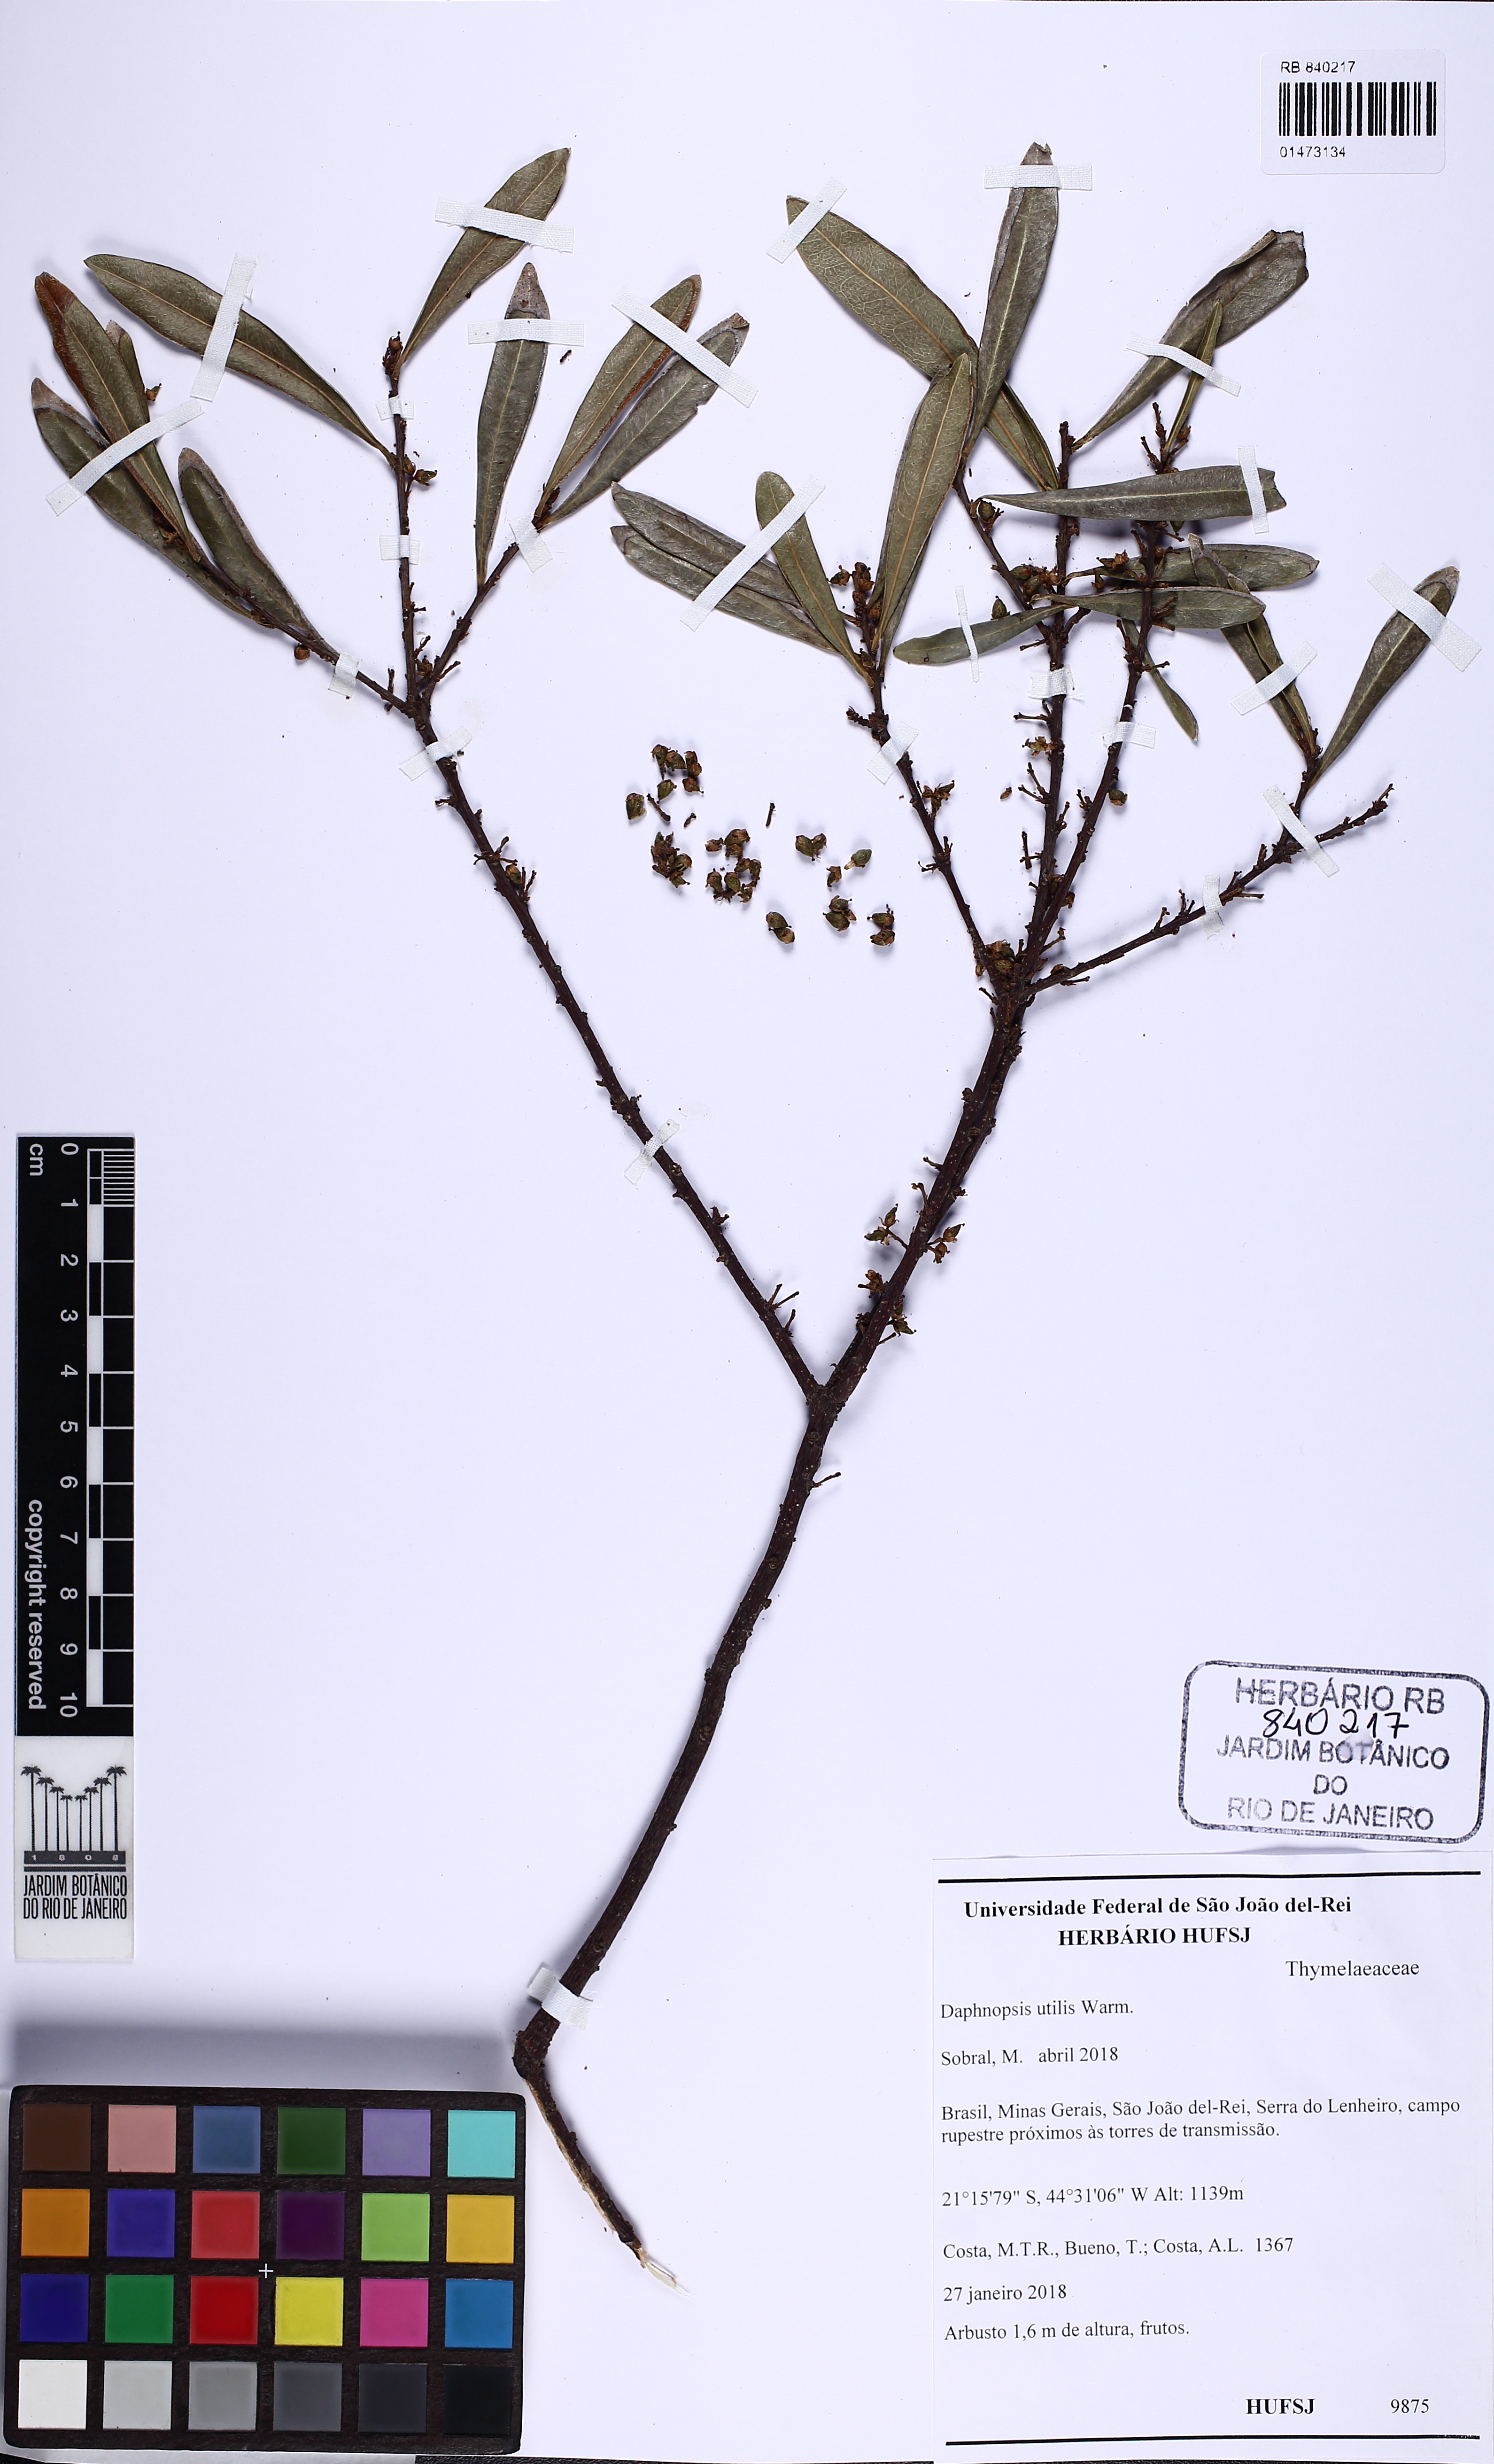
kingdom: Plantae
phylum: Tracheophyta
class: Magnoliopsida
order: Malvales
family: Thymelaeaceae
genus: Daphnopsis
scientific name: Daphnopsis utilis
